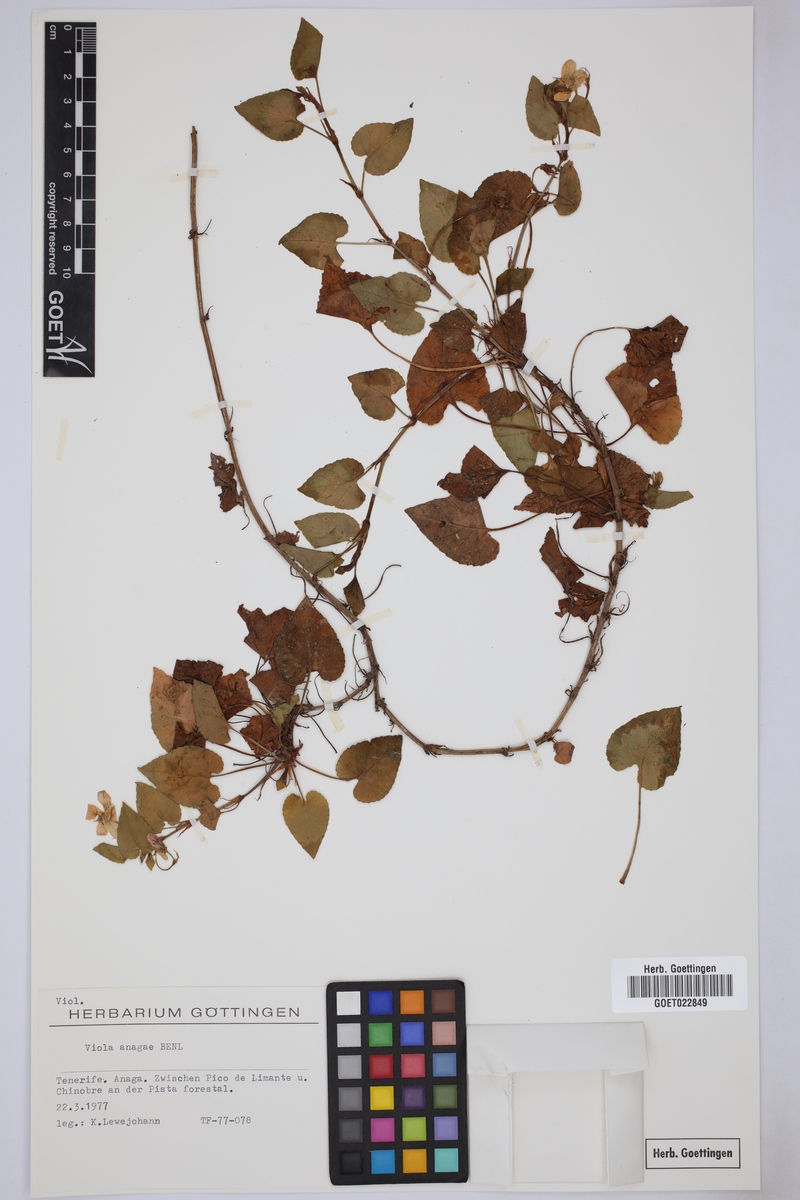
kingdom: Plantae
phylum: Tracheophyta
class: Magnoliopsida
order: Malpighiales
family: Violaceae
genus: Viola
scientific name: Viola anagae
